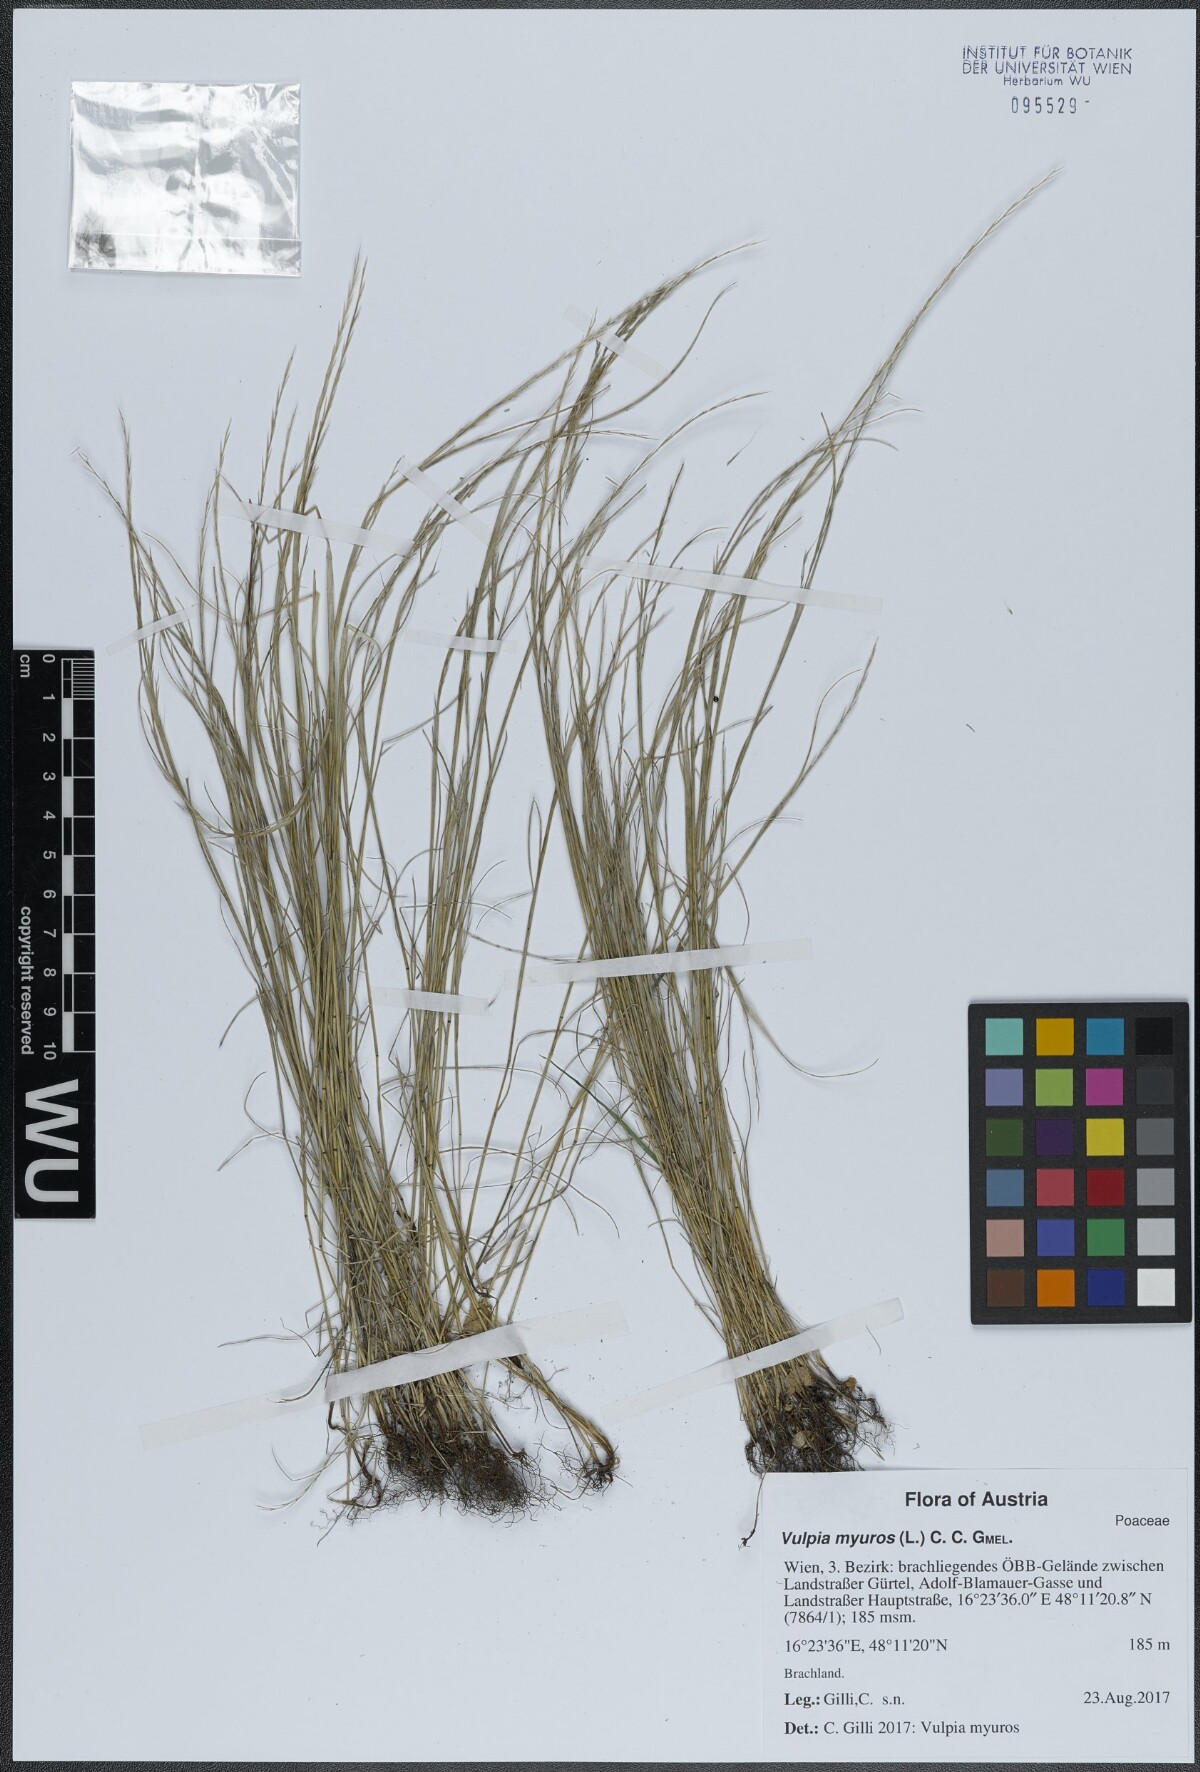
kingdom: Plantae
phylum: Tracheophyta
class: Liliopsida
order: Poales
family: Poaceae
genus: Festuca
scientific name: Festuca myuros
